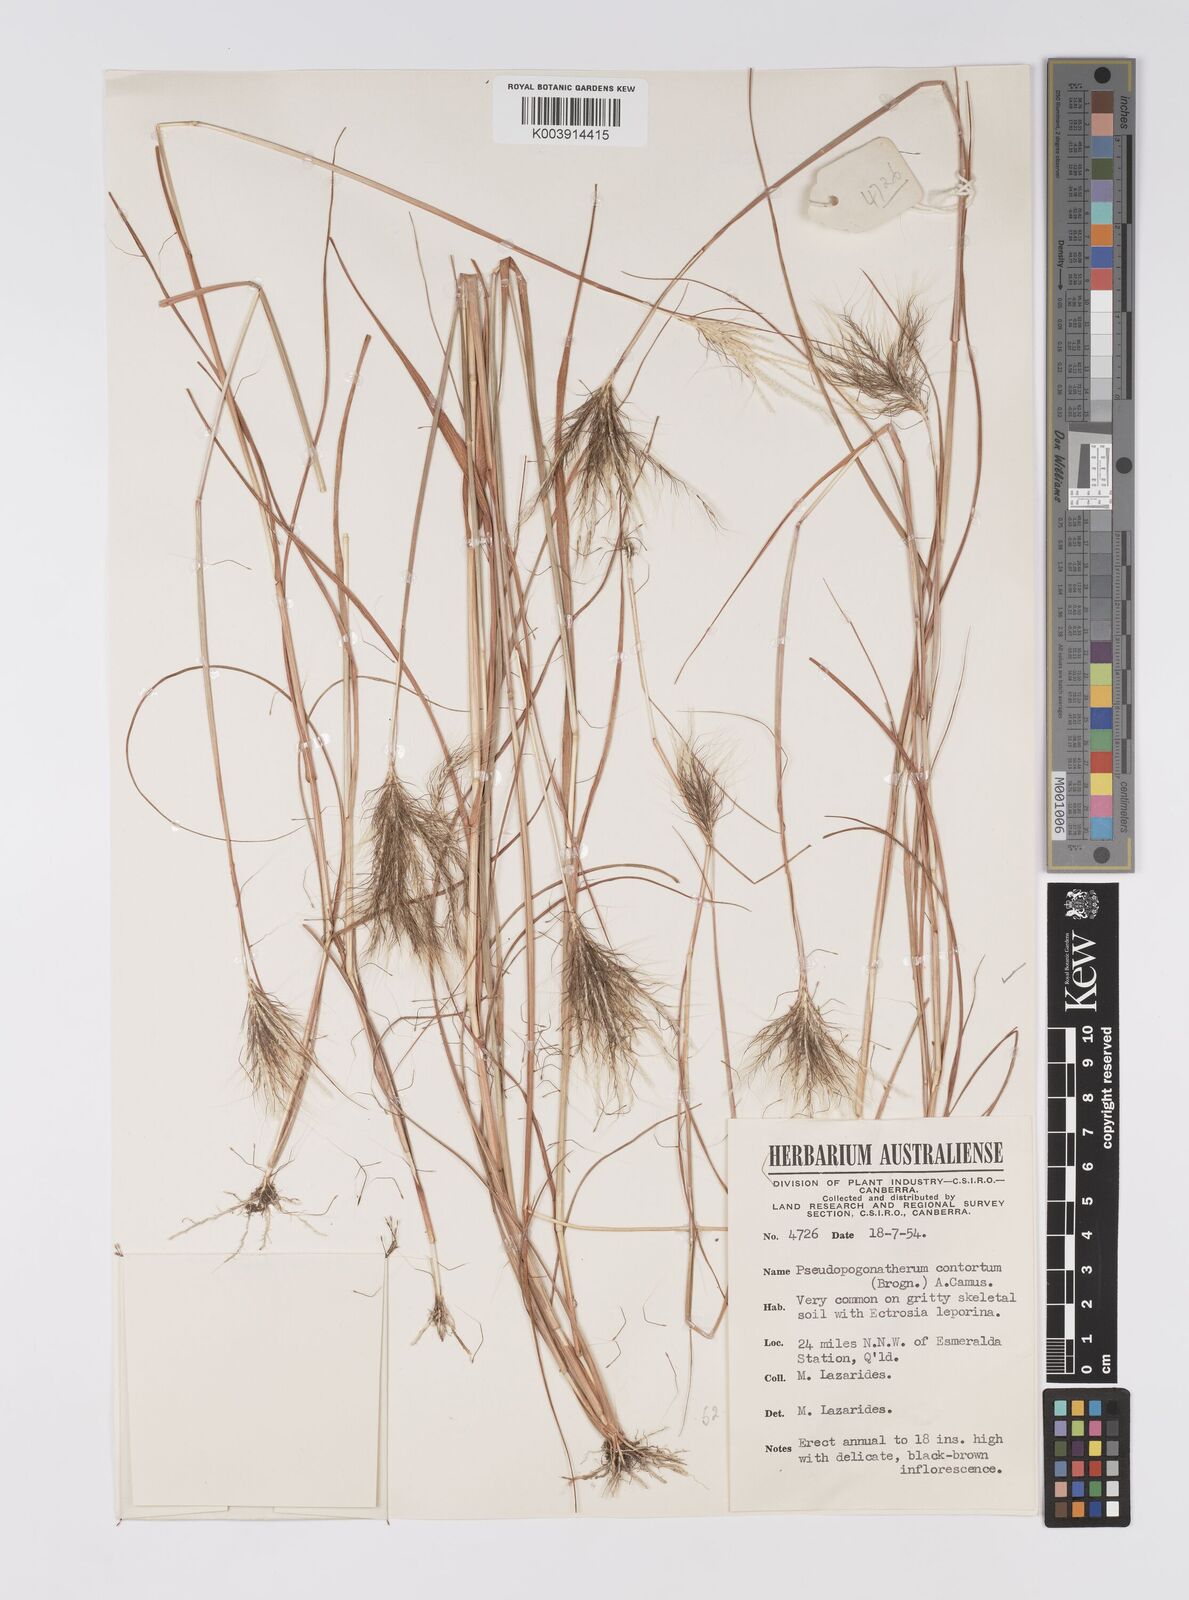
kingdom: Plantae
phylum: Tracheophyta
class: Liliopsida
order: Poales
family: Poaceae
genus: Pseudopogonatherum
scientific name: Pseudopogonatherum contortum
